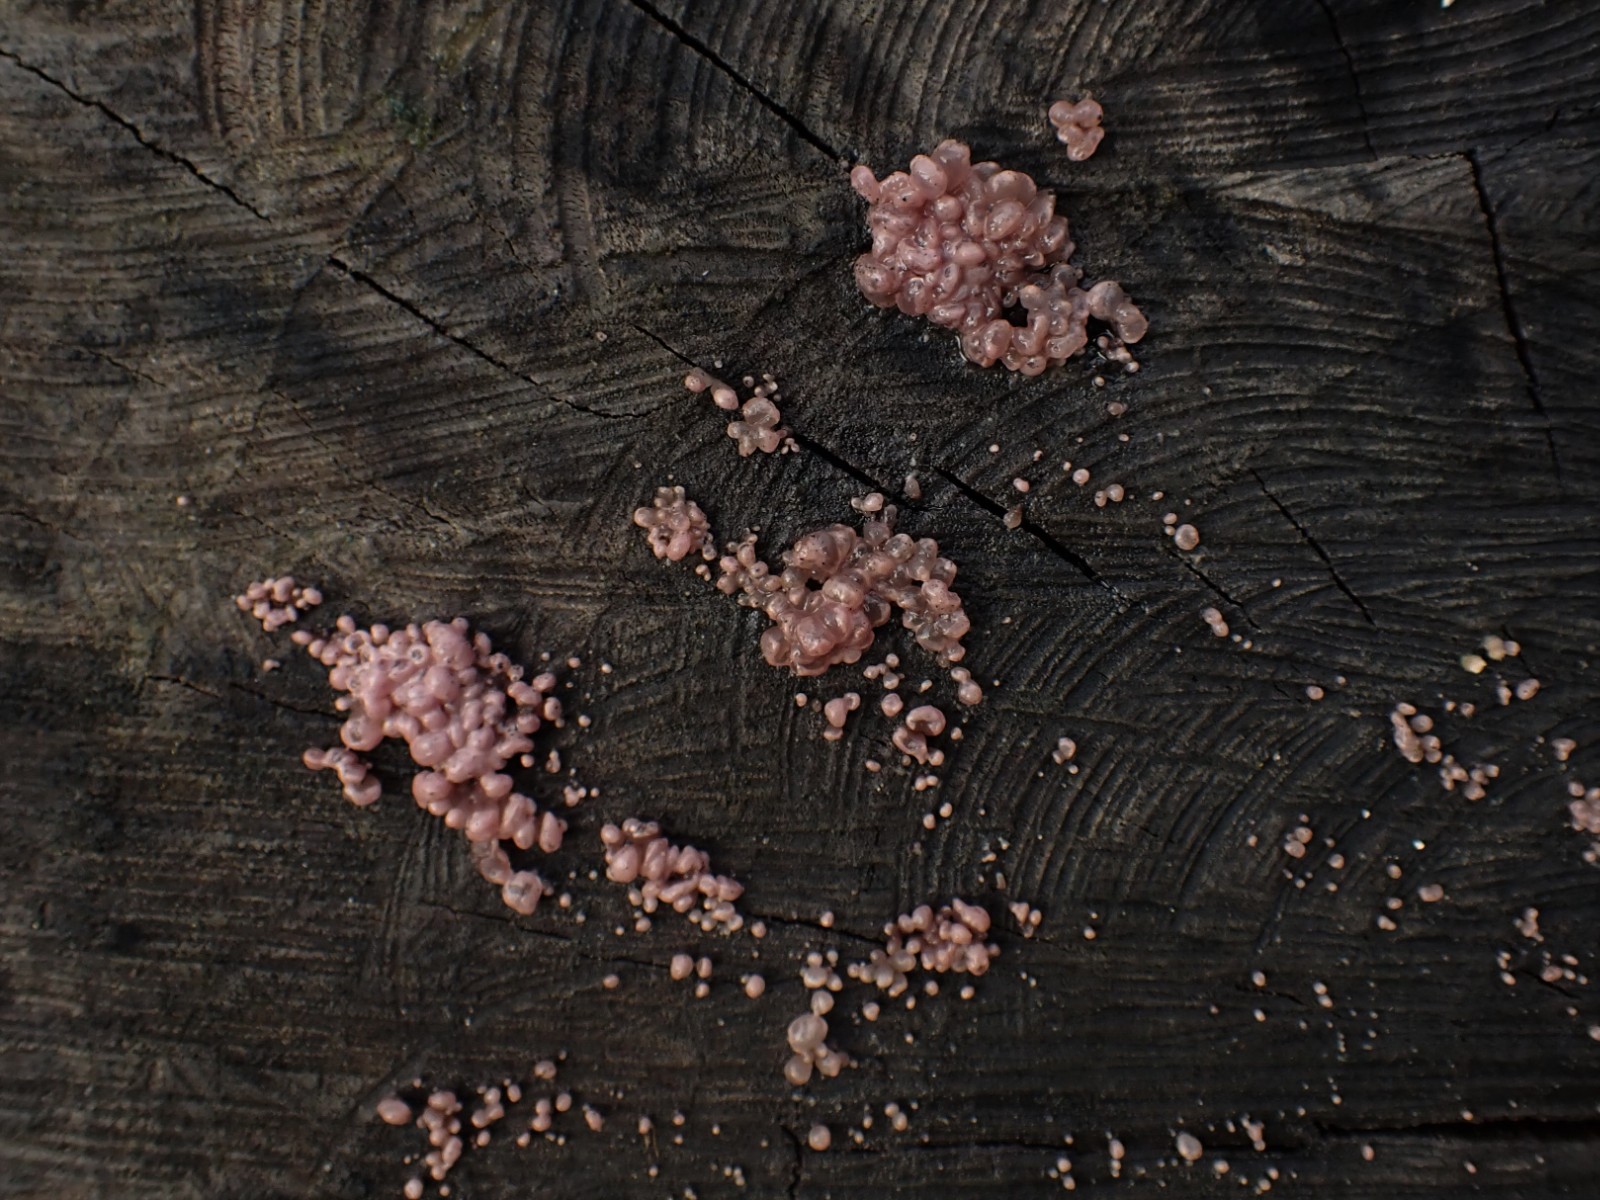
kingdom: Fungi
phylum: Ascomycota
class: Leotiomycetes
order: Helotiales
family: Gelatinodiscaceae
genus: Ascocoryne
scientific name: Ascocoryne sarcoides
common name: rødlilla sejskive
